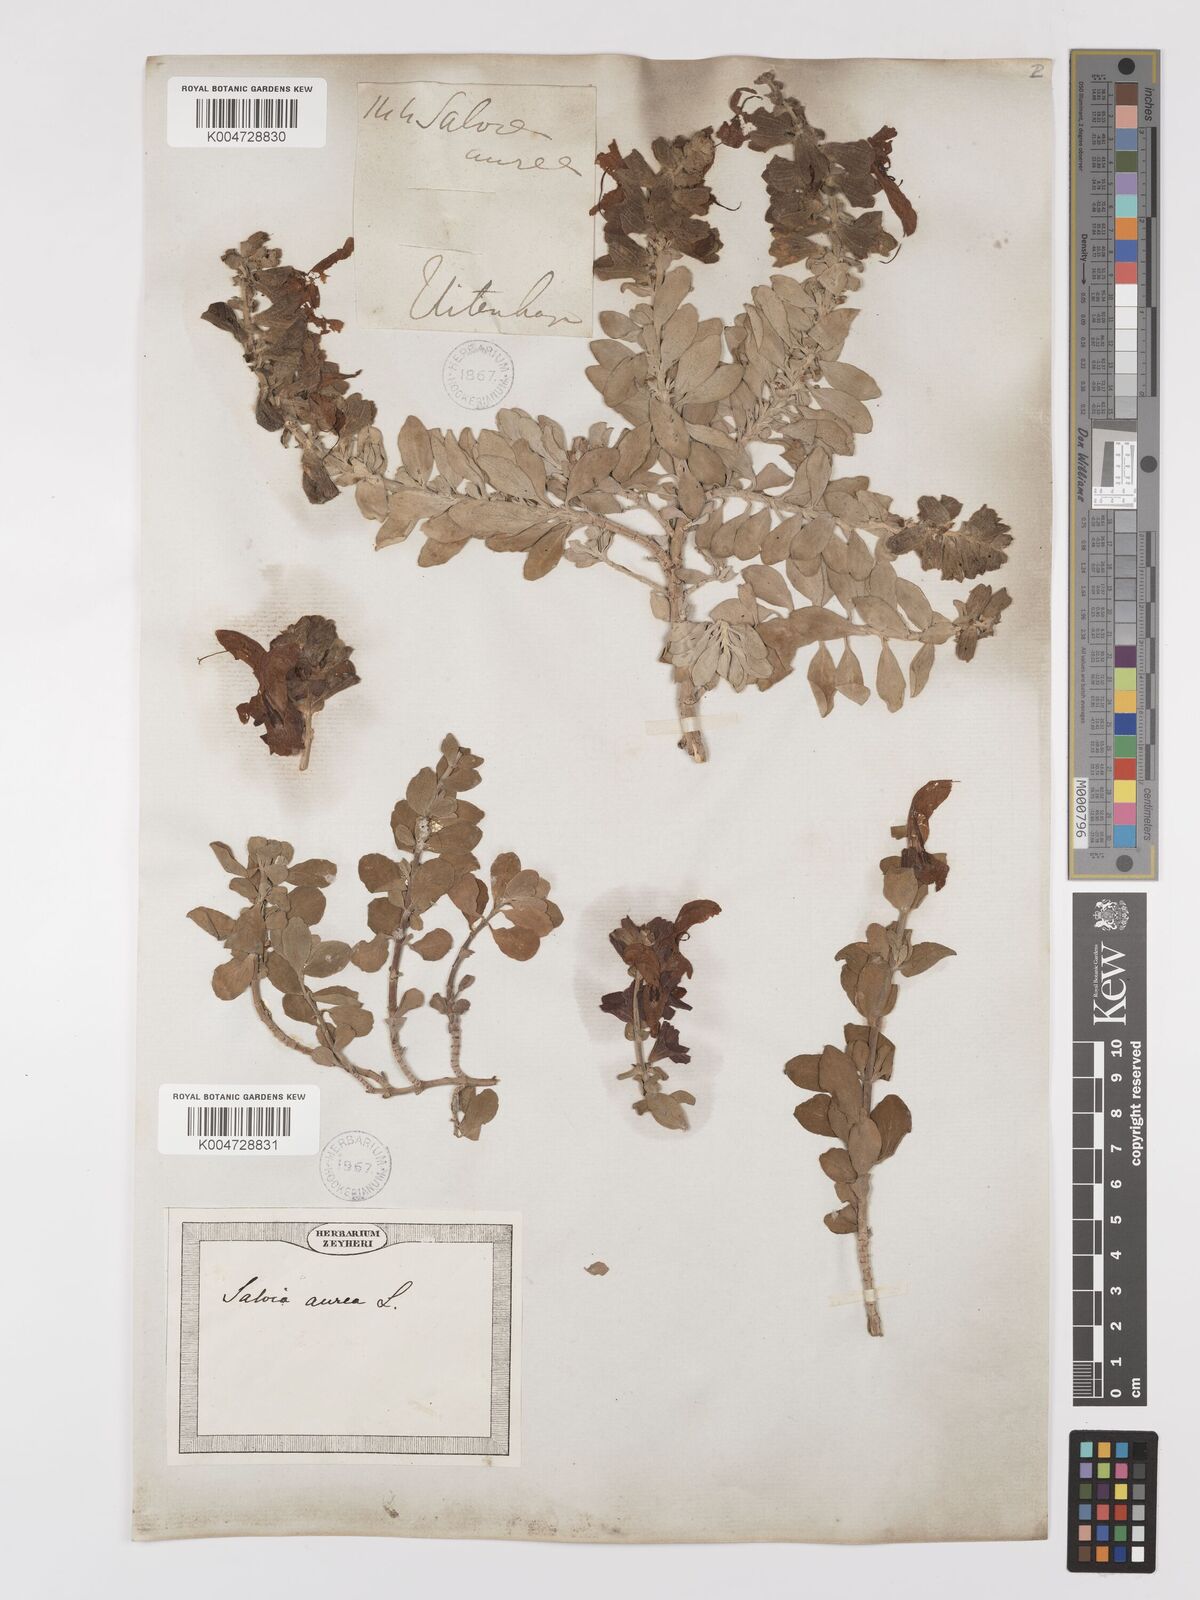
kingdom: Plantae
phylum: Tracheophyta
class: Magnoliopsida
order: Lamiales
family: Lamiaceae
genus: Salvia
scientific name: Salvia aurea
